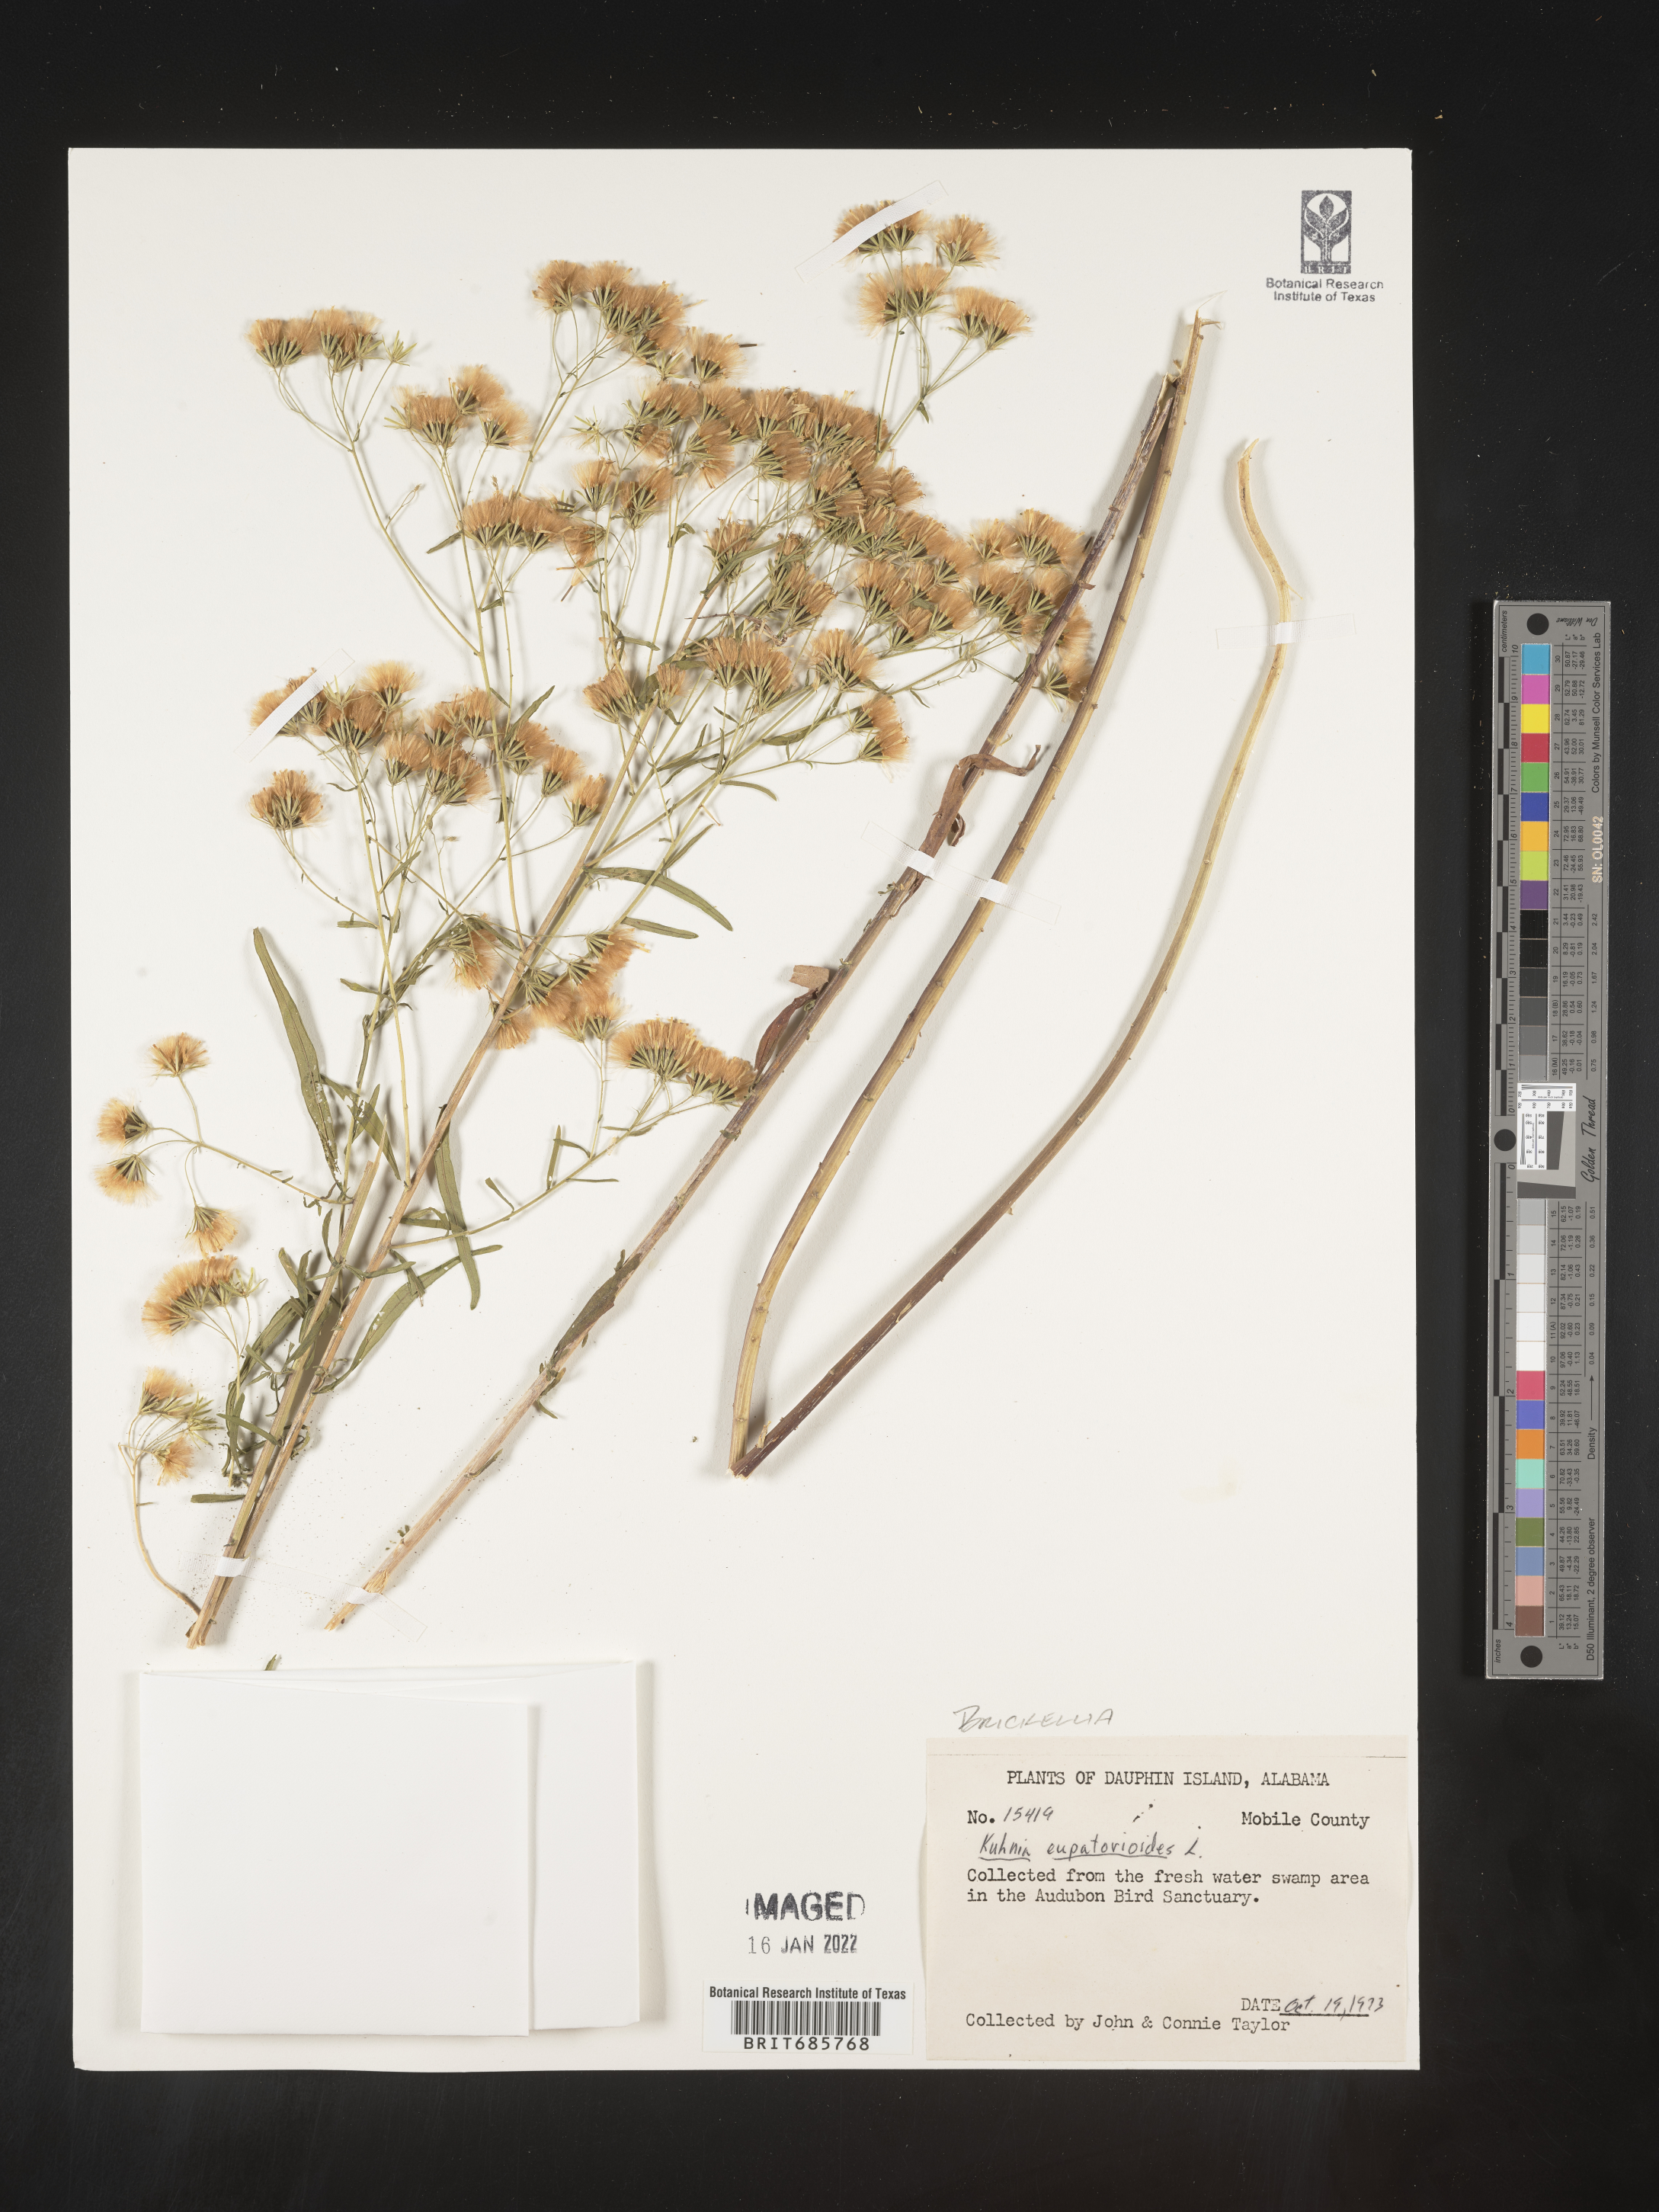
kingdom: Plantae
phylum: Tracheophyta
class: Magnoliopsida
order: Asterales
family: Asteraceae
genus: Brickellia
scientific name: Brickellia eupatorioides
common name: False boneset
